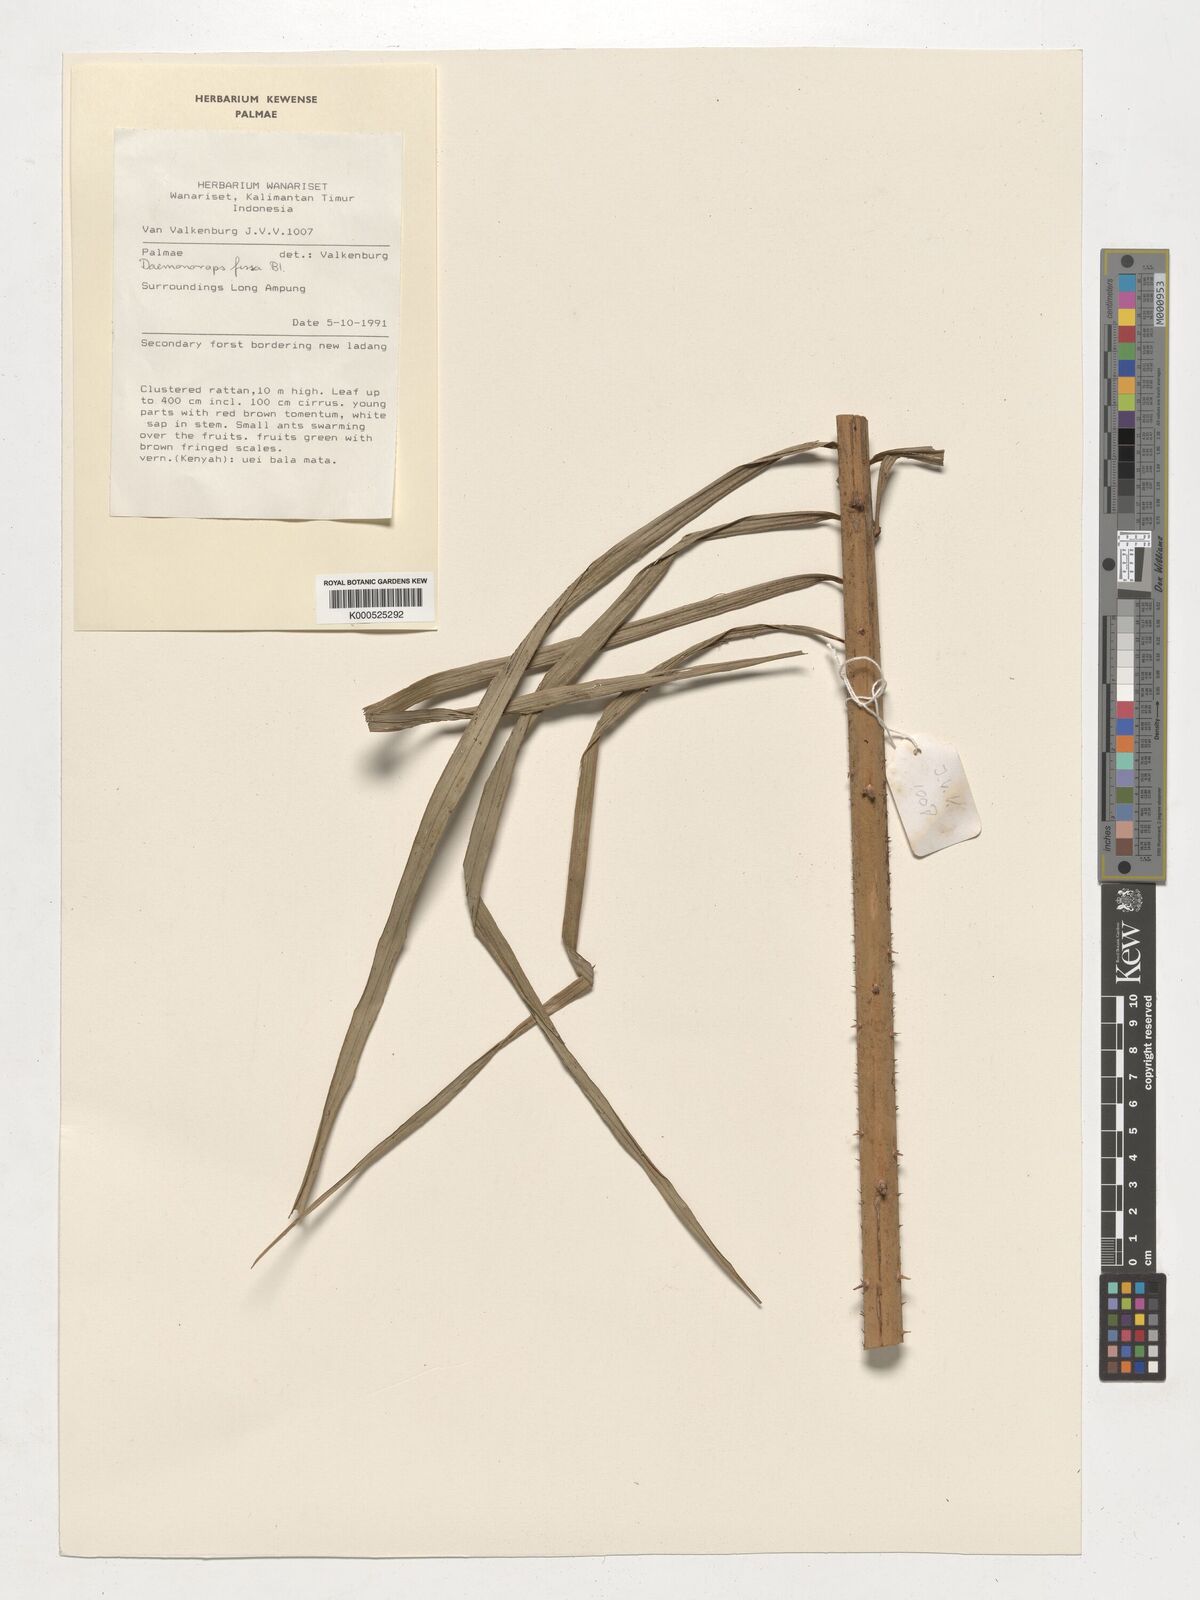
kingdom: Plantae
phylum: Tracheophyta
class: Liliopsida
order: Arecales
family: Arecaceae
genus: Calamus
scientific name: Calamus melanochaetes
